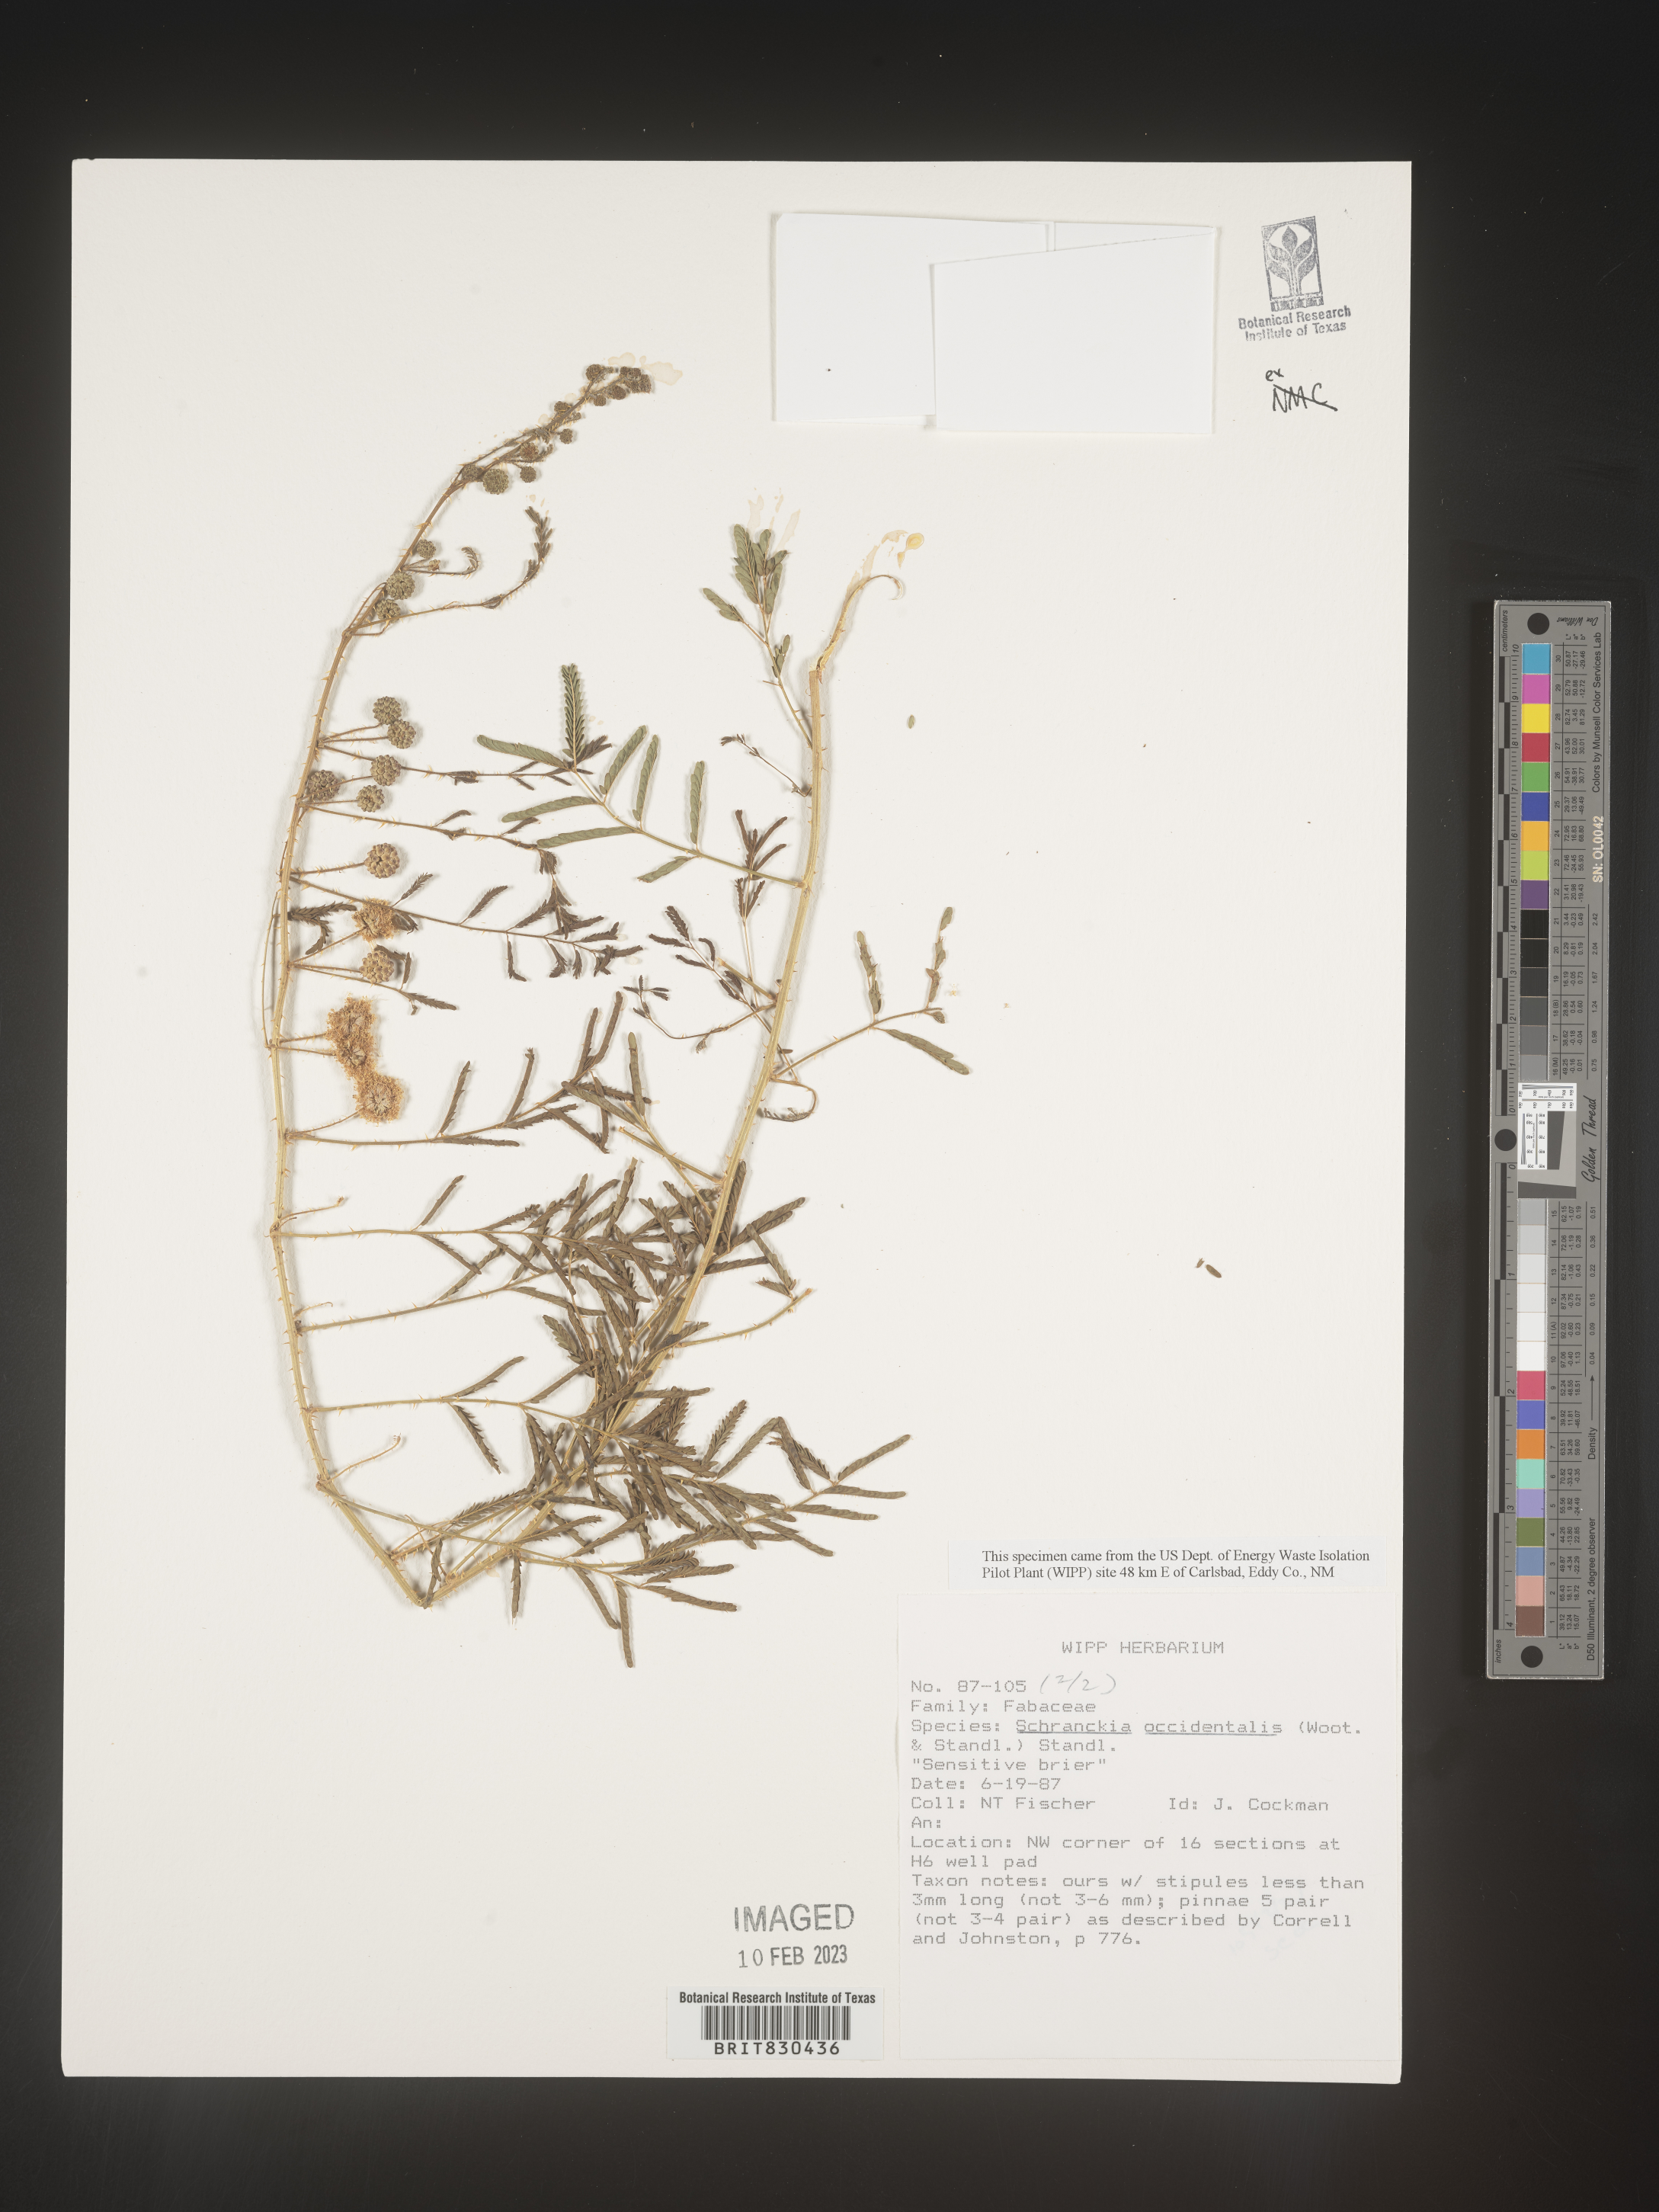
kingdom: Plantae
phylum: Tracheophyta
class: Magnoliopsida
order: Fabales
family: Fabaceae
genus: Mimosa
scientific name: Mimosa
